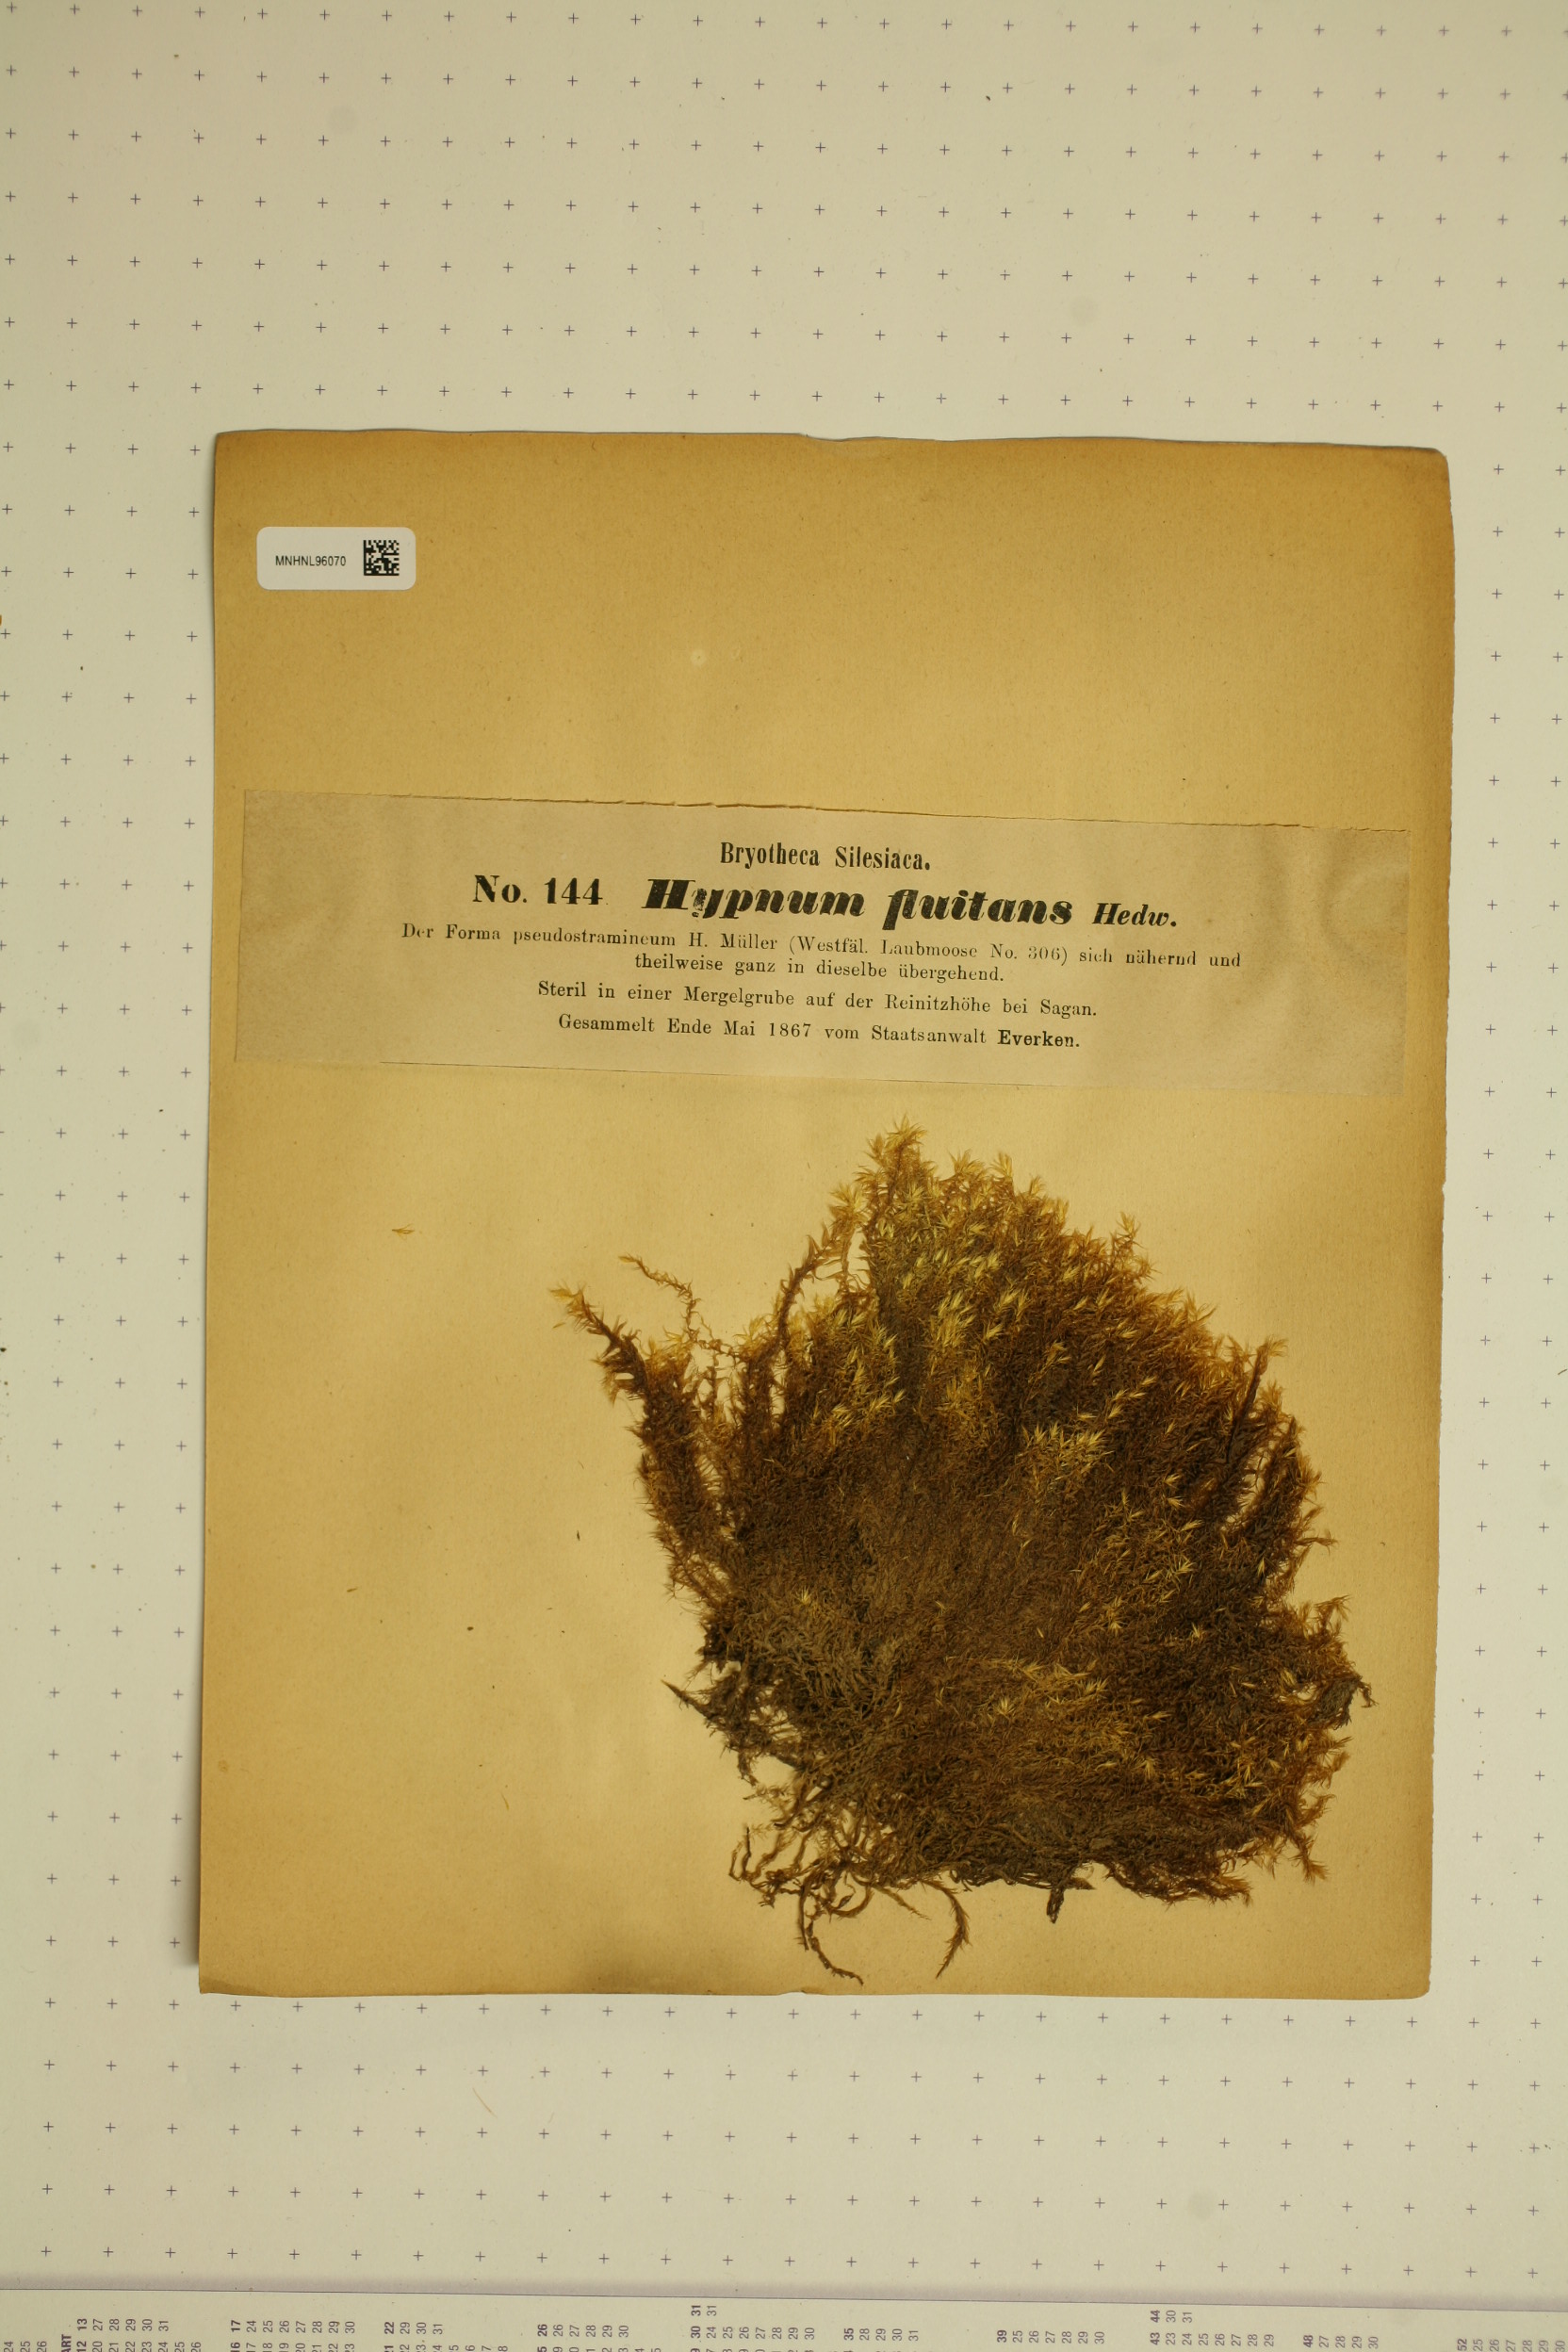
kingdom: Plantae
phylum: Bryophyta
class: Bryopsida
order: Hypnales
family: Calliergonaceae
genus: Warnstorfia
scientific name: Warnstorfia fluitans
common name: Floating hook moss
